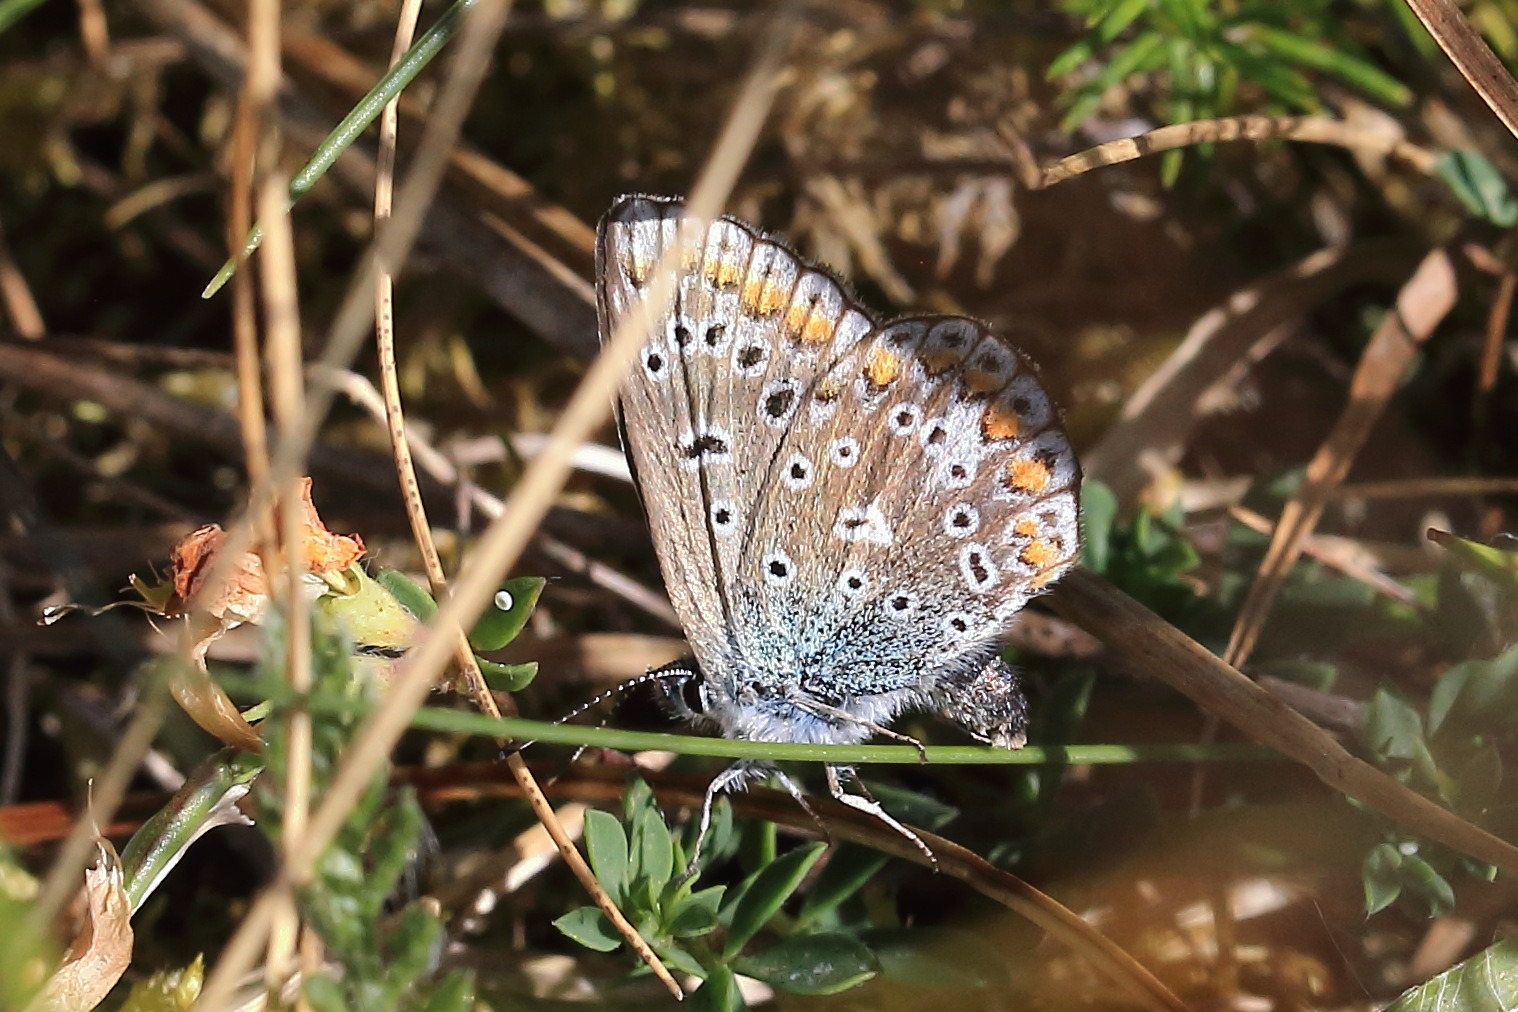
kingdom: Animalia
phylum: Arthropoda
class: Insecta
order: Lepidoptera
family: Lycaenidae
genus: Polyommatus
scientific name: Polyommatus icarus
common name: Almindelig blåfugl
